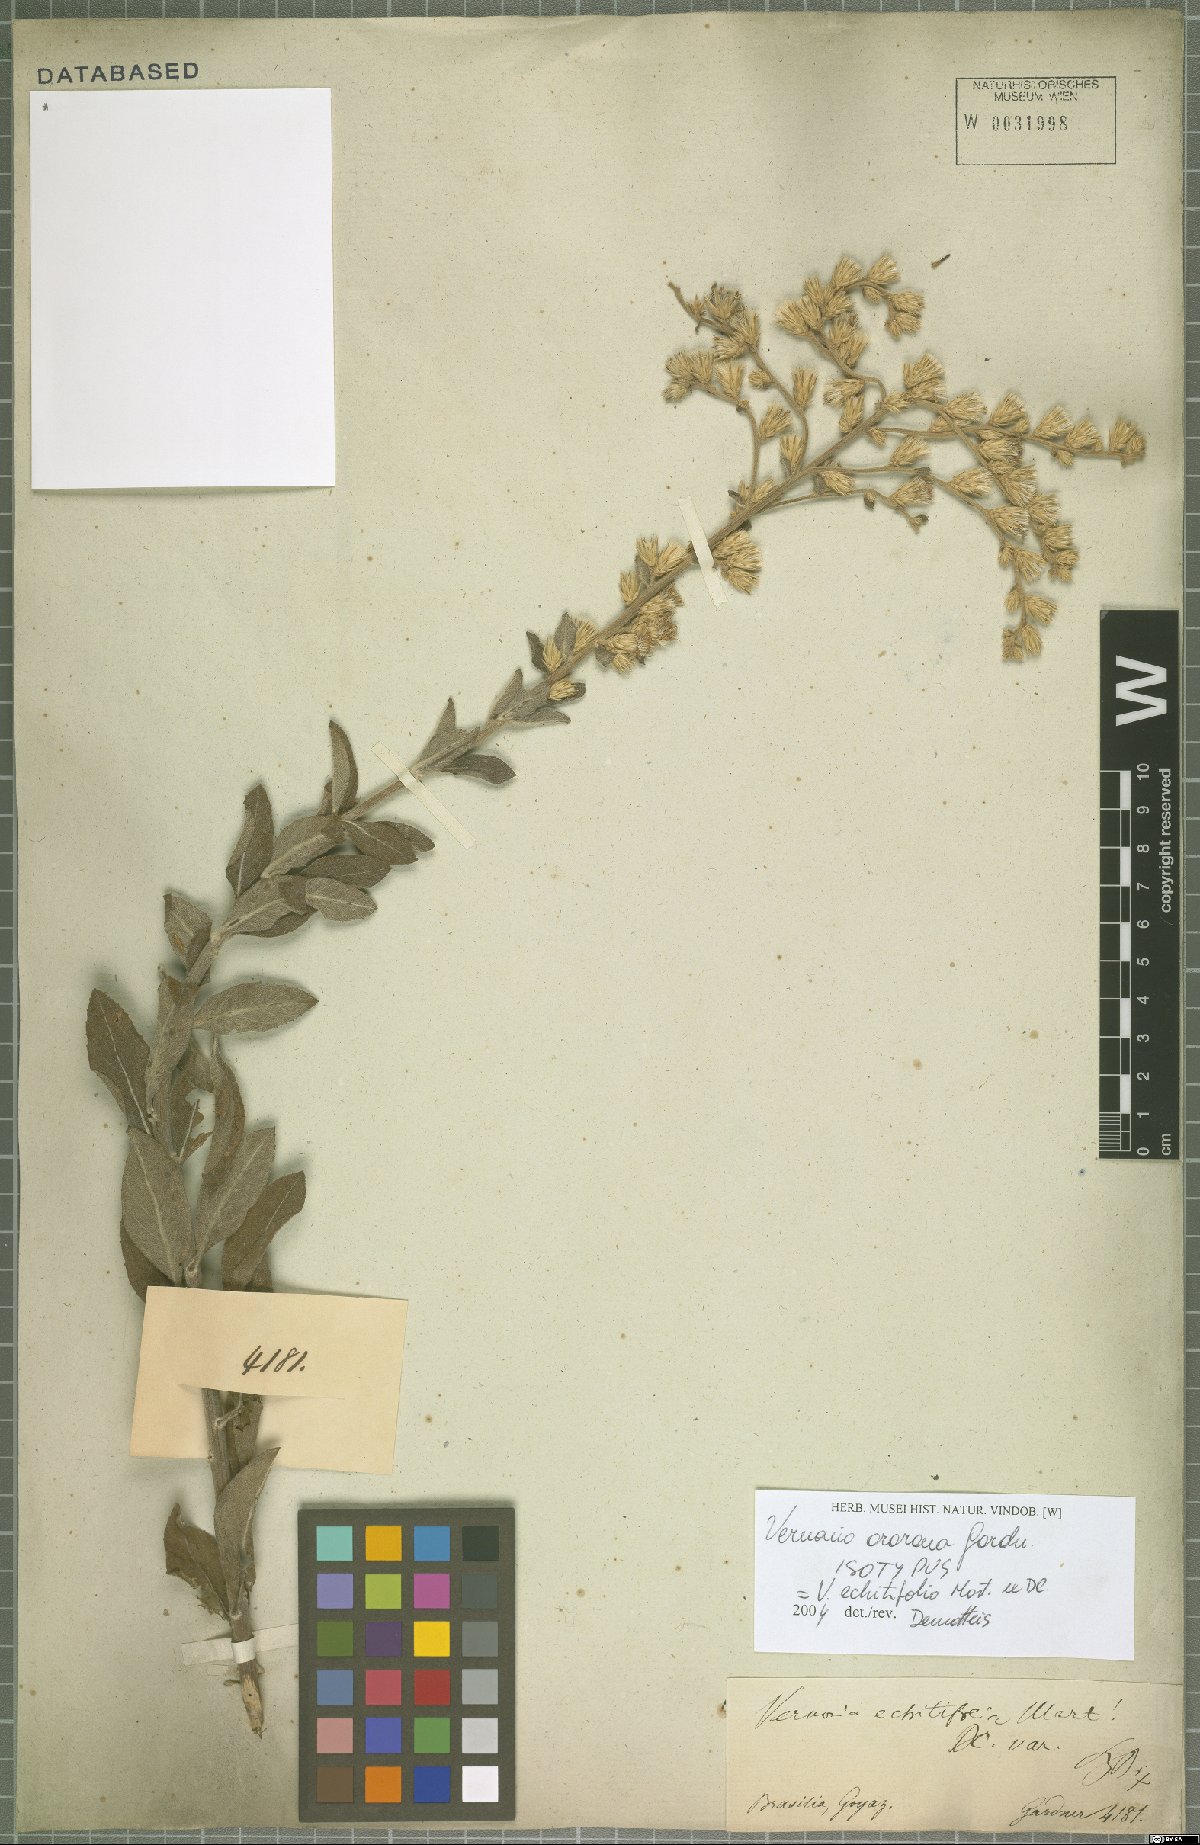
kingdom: Plantae
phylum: Tracheophyta
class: Magnoliopsida
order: Asterales
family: Asteraceae
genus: Acilepidopsis
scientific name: Acilepidopsis echitifolia
